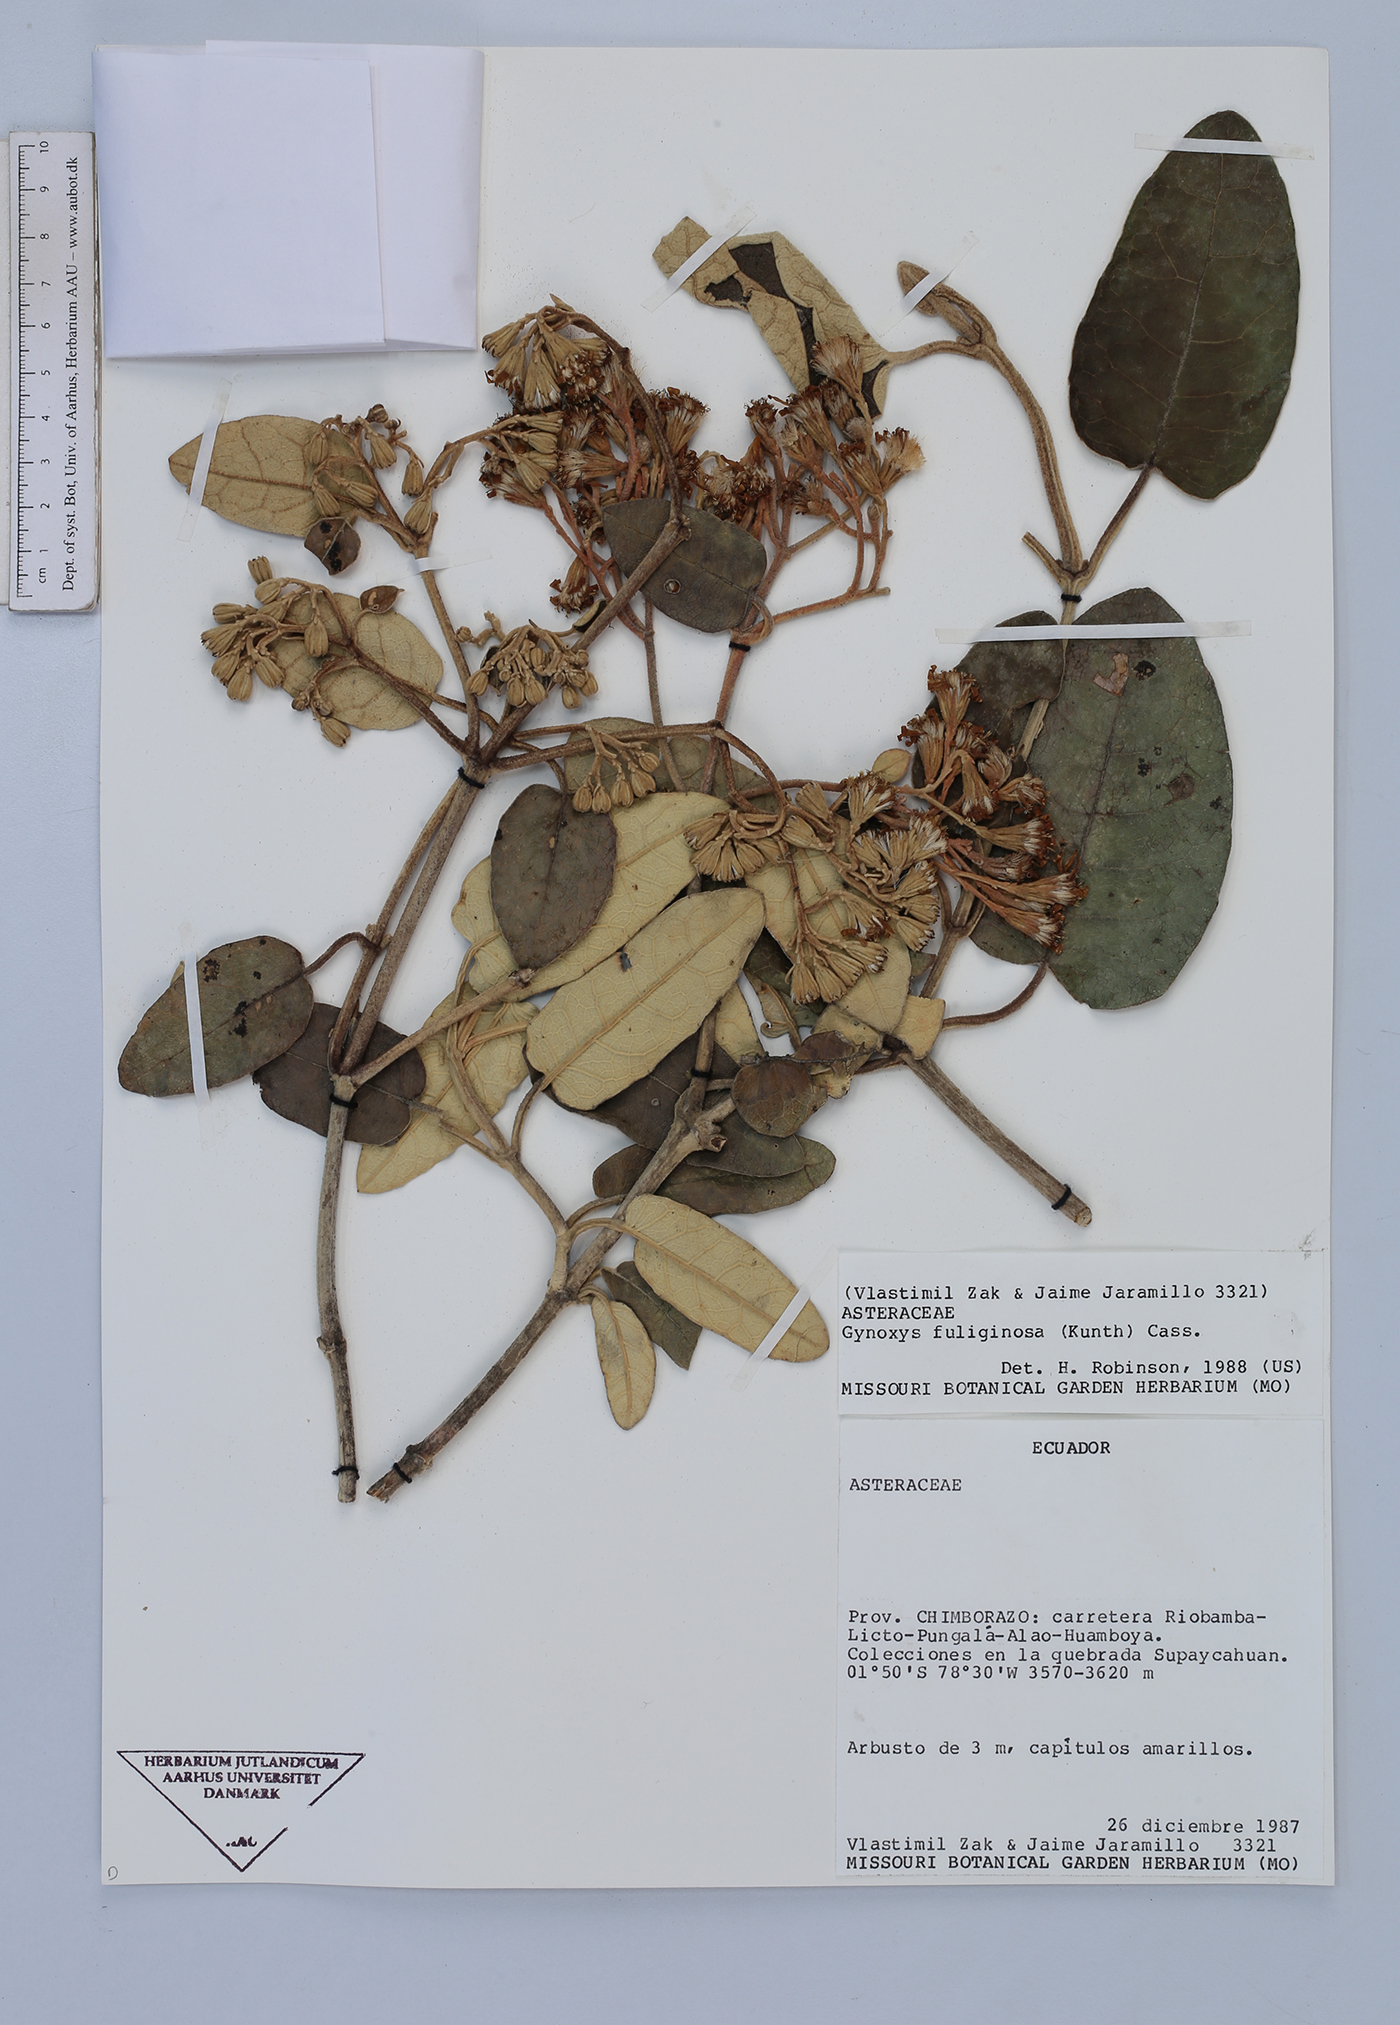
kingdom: Plantae
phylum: Tracheophyta
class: Magnoliopsida
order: Asterales
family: Asteraceae
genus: Gynoxys
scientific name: Gynoxys fuliginosa
